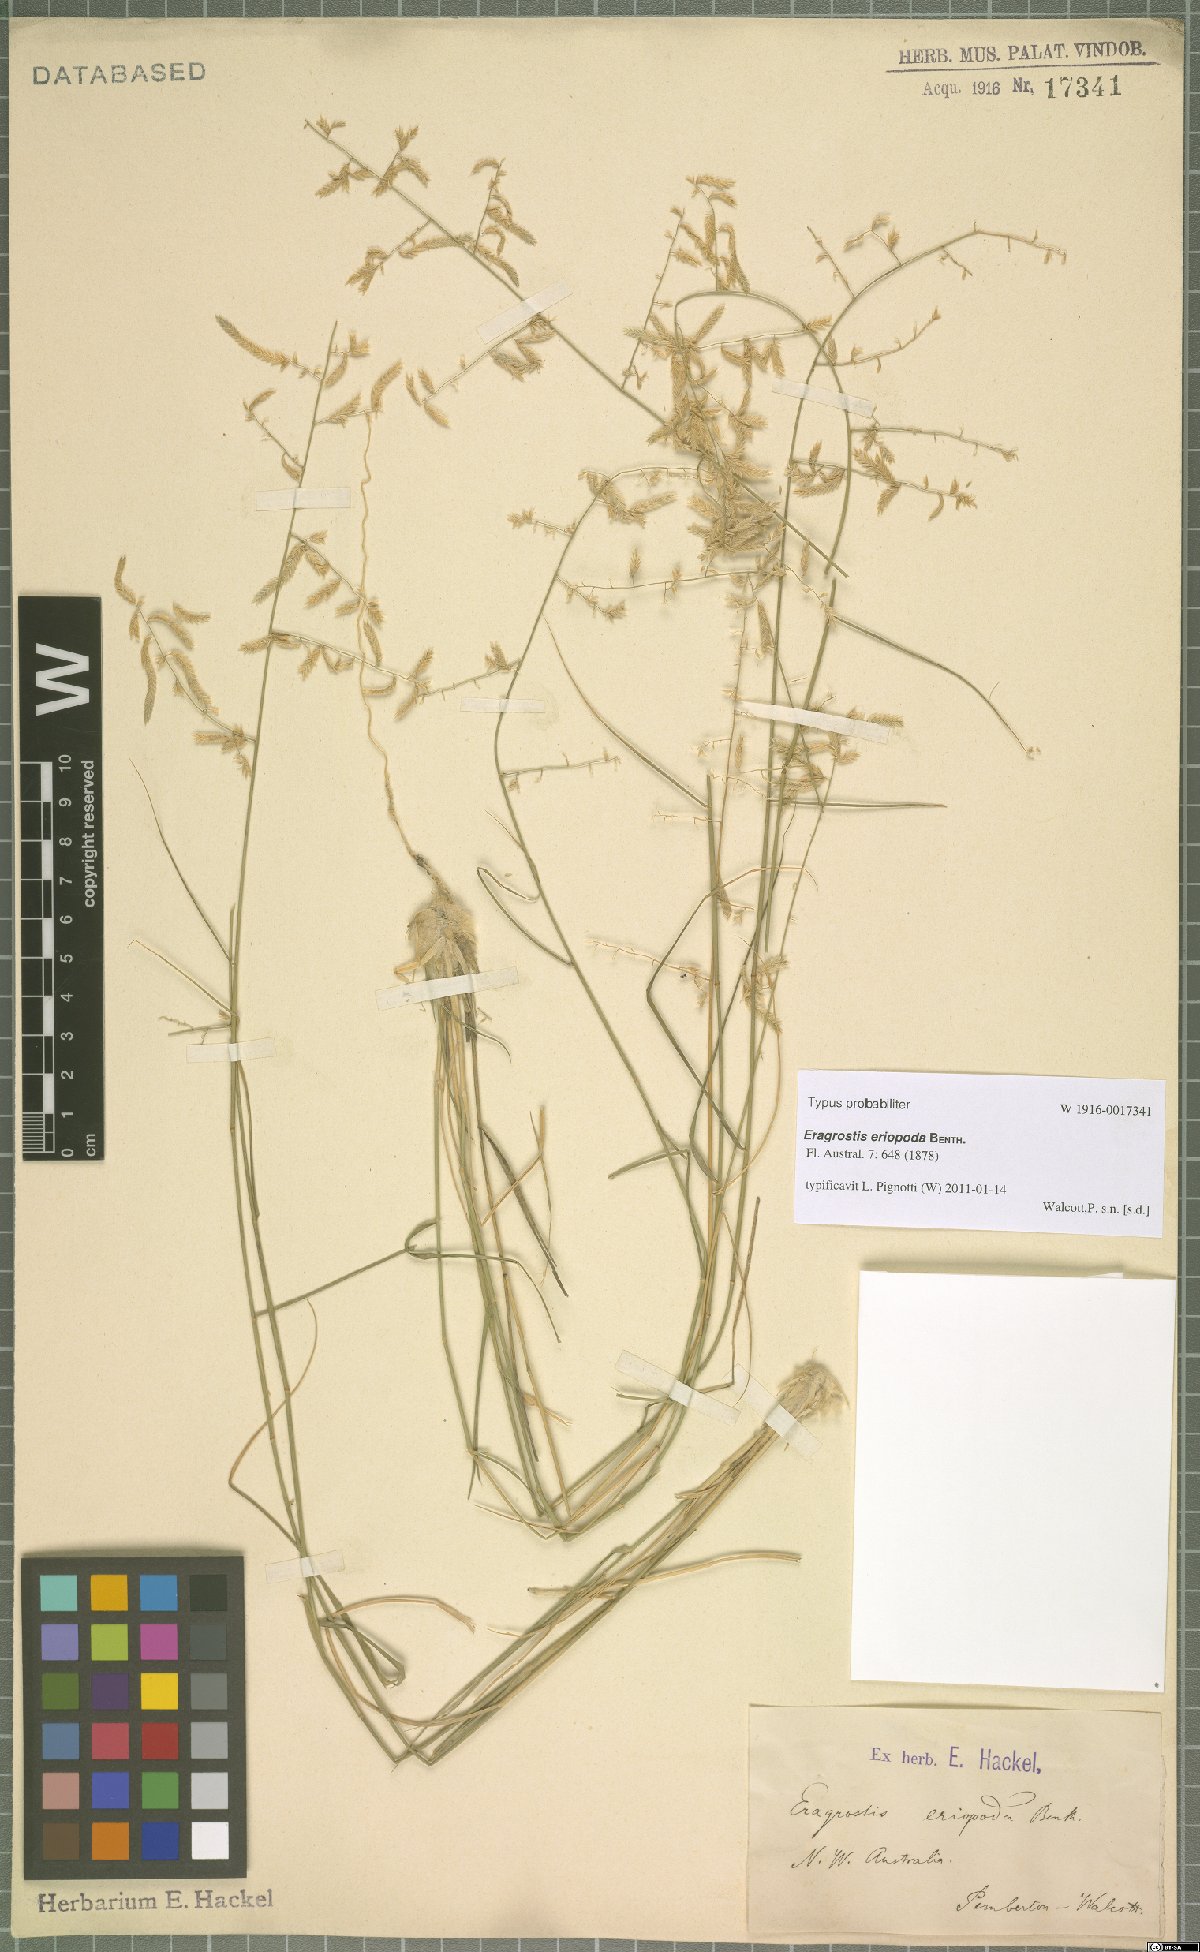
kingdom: Plantae
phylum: Tracheophyta
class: Liliopsida
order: Poales
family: Poaceae
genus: Eragrostis
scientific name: Eragrostis eriopoda
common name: Plain neverfail
